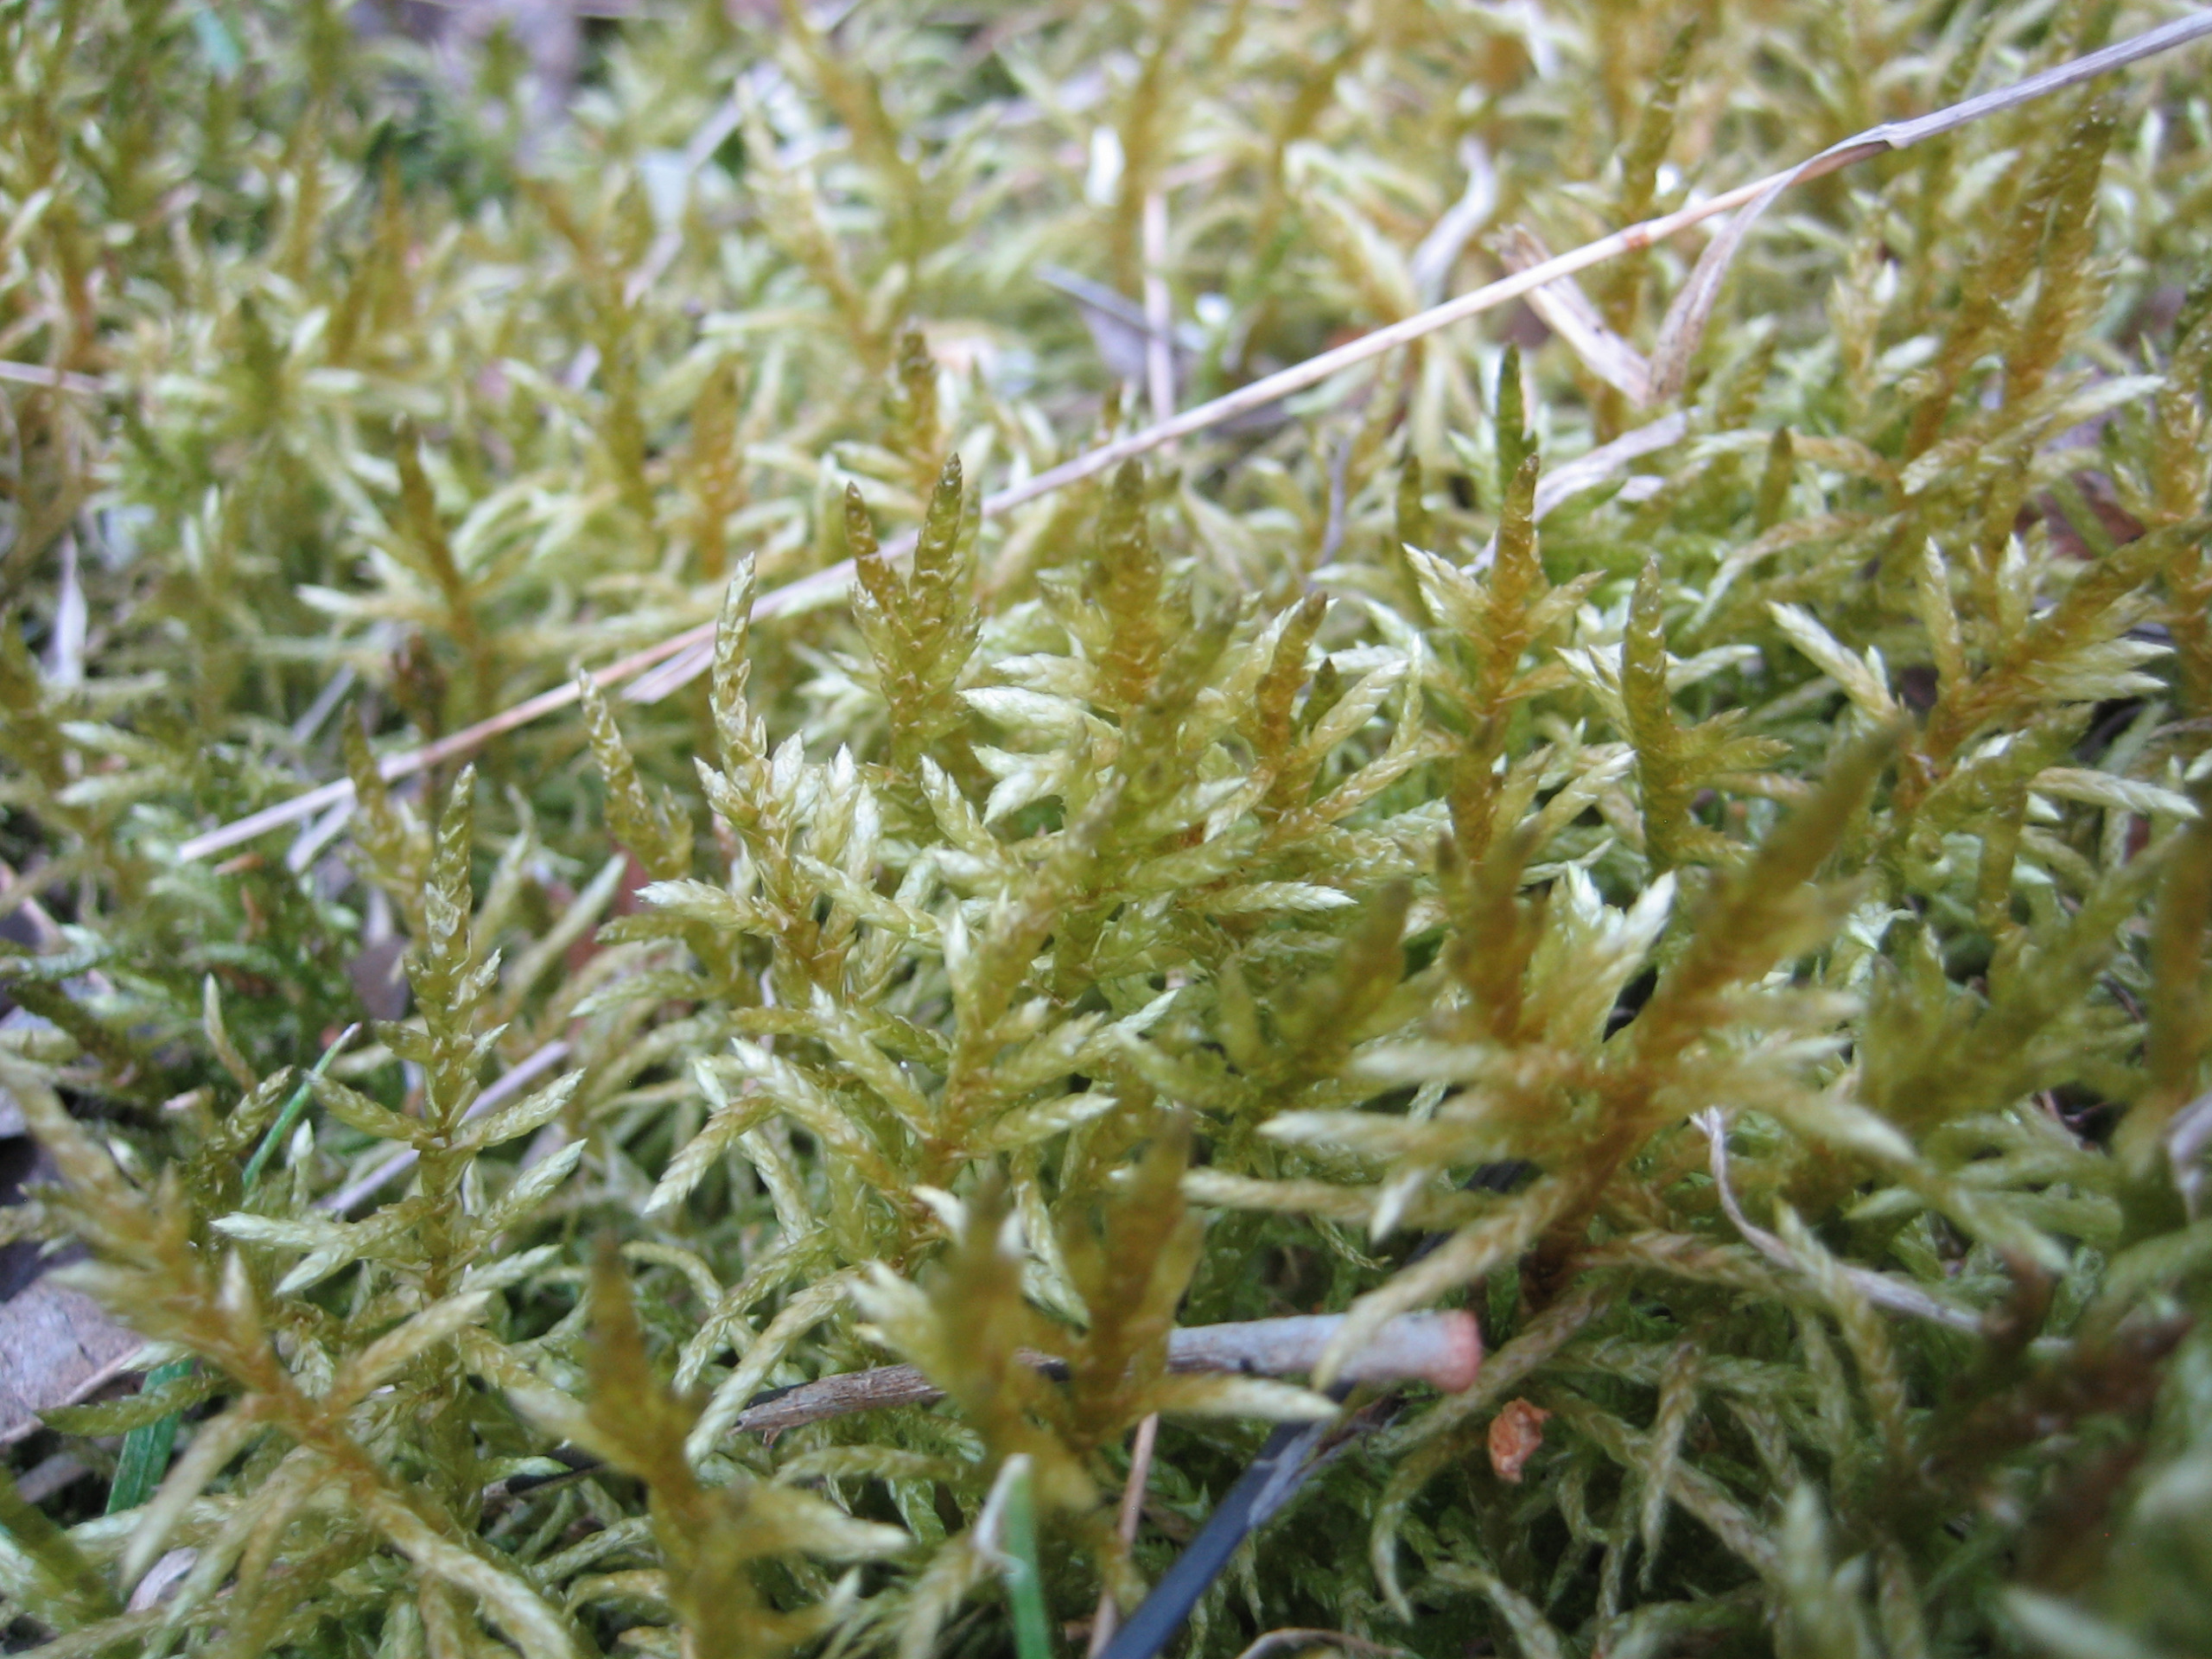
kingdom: Plantae
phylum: Bryophyta
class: Bryopsida
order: Hypnales
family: Brachytheciaceae
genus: Pseudoscleropodium
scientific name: Pseudoscleropodium purum
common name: Hulbladet fedtmos
